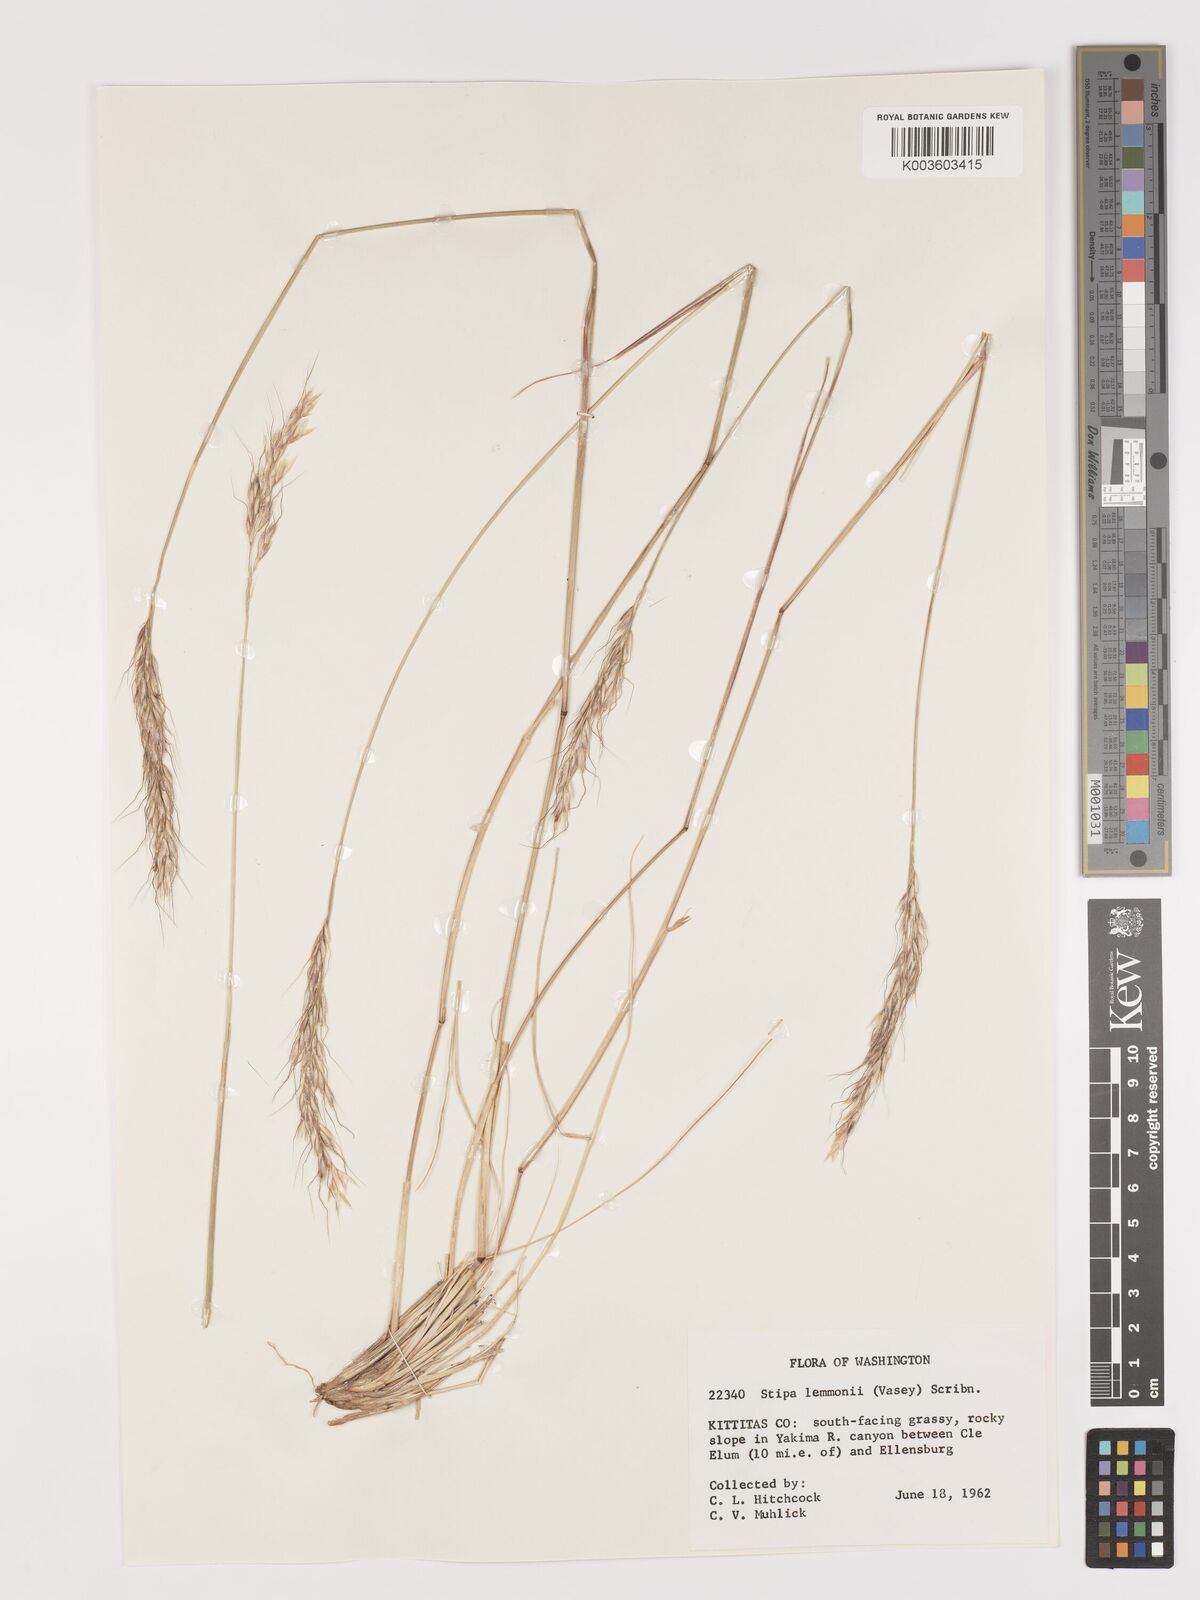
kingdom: Plantae
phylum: Tracheophyta
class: Liliopsida
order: Poales
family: Poaceae
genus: Eriocoma
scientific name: Eriocoma lemmonii
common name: Lemmon's needlegrass
